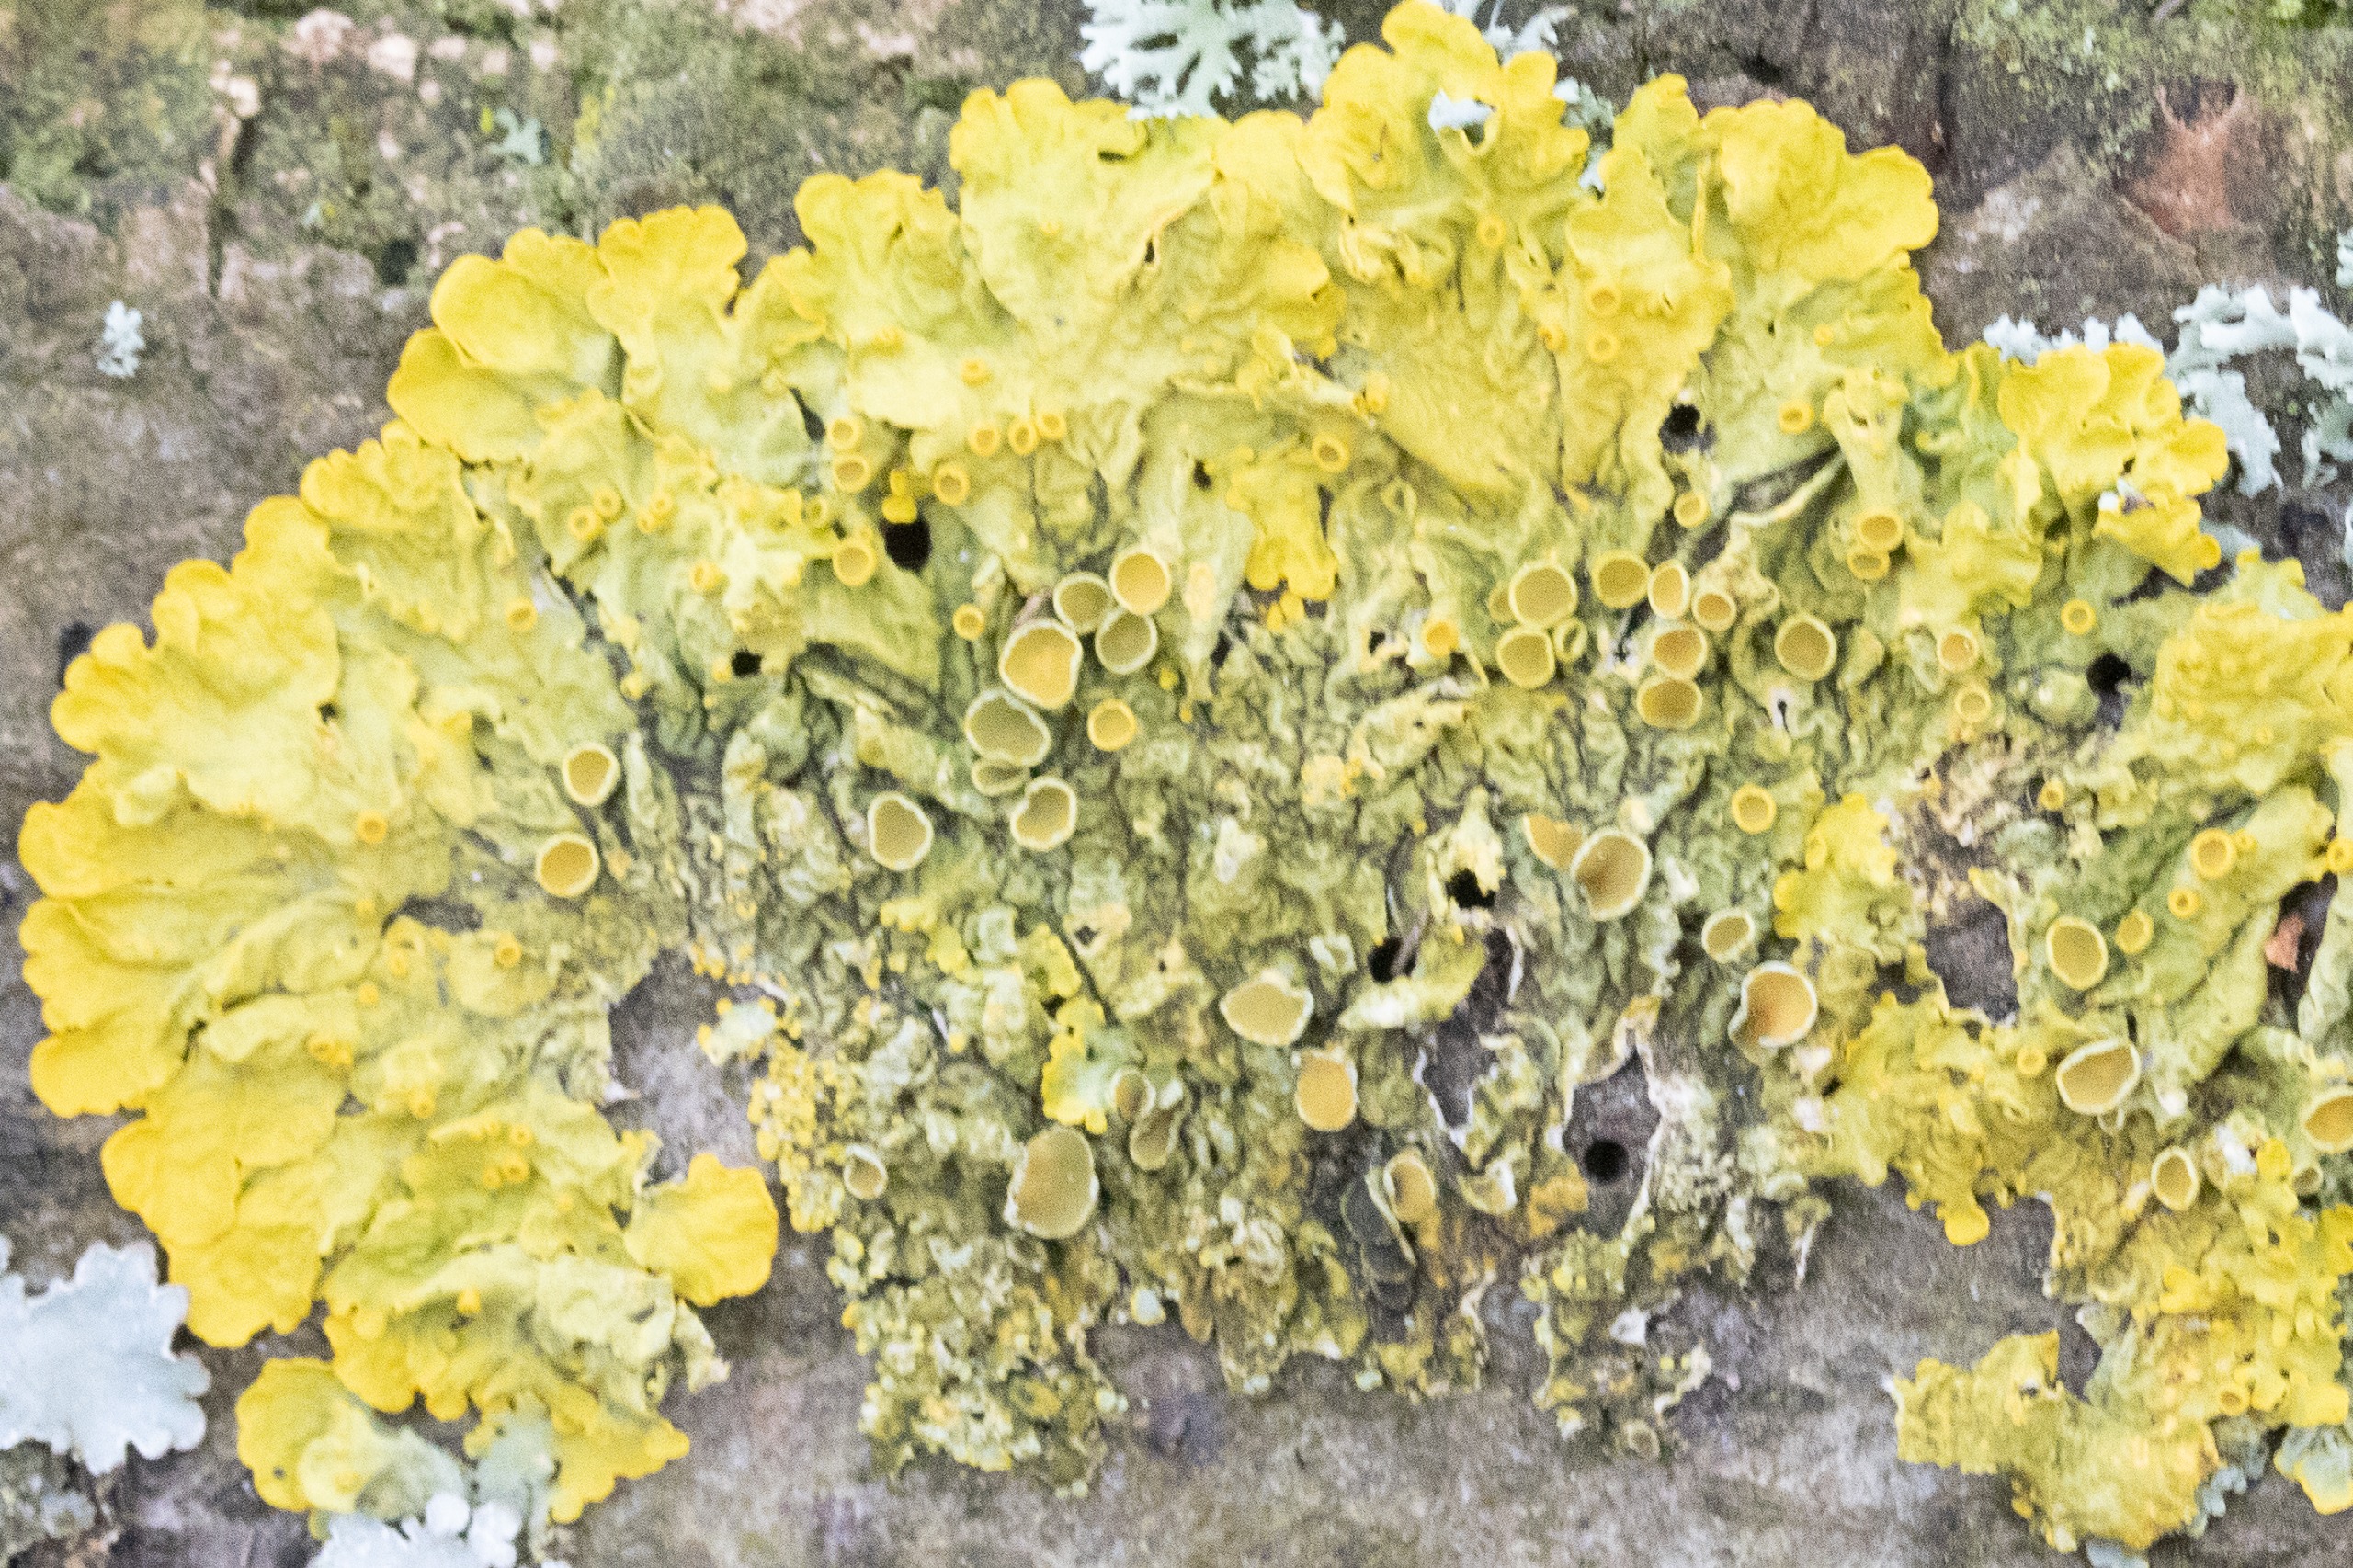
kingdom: Fungi
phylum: Ascomycota
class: Lecanoromycetes
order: Teloschistales
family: Teloschistaceae
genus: Xanthoria
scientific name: Xanthoria parietina
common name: Almindelig væggelav
